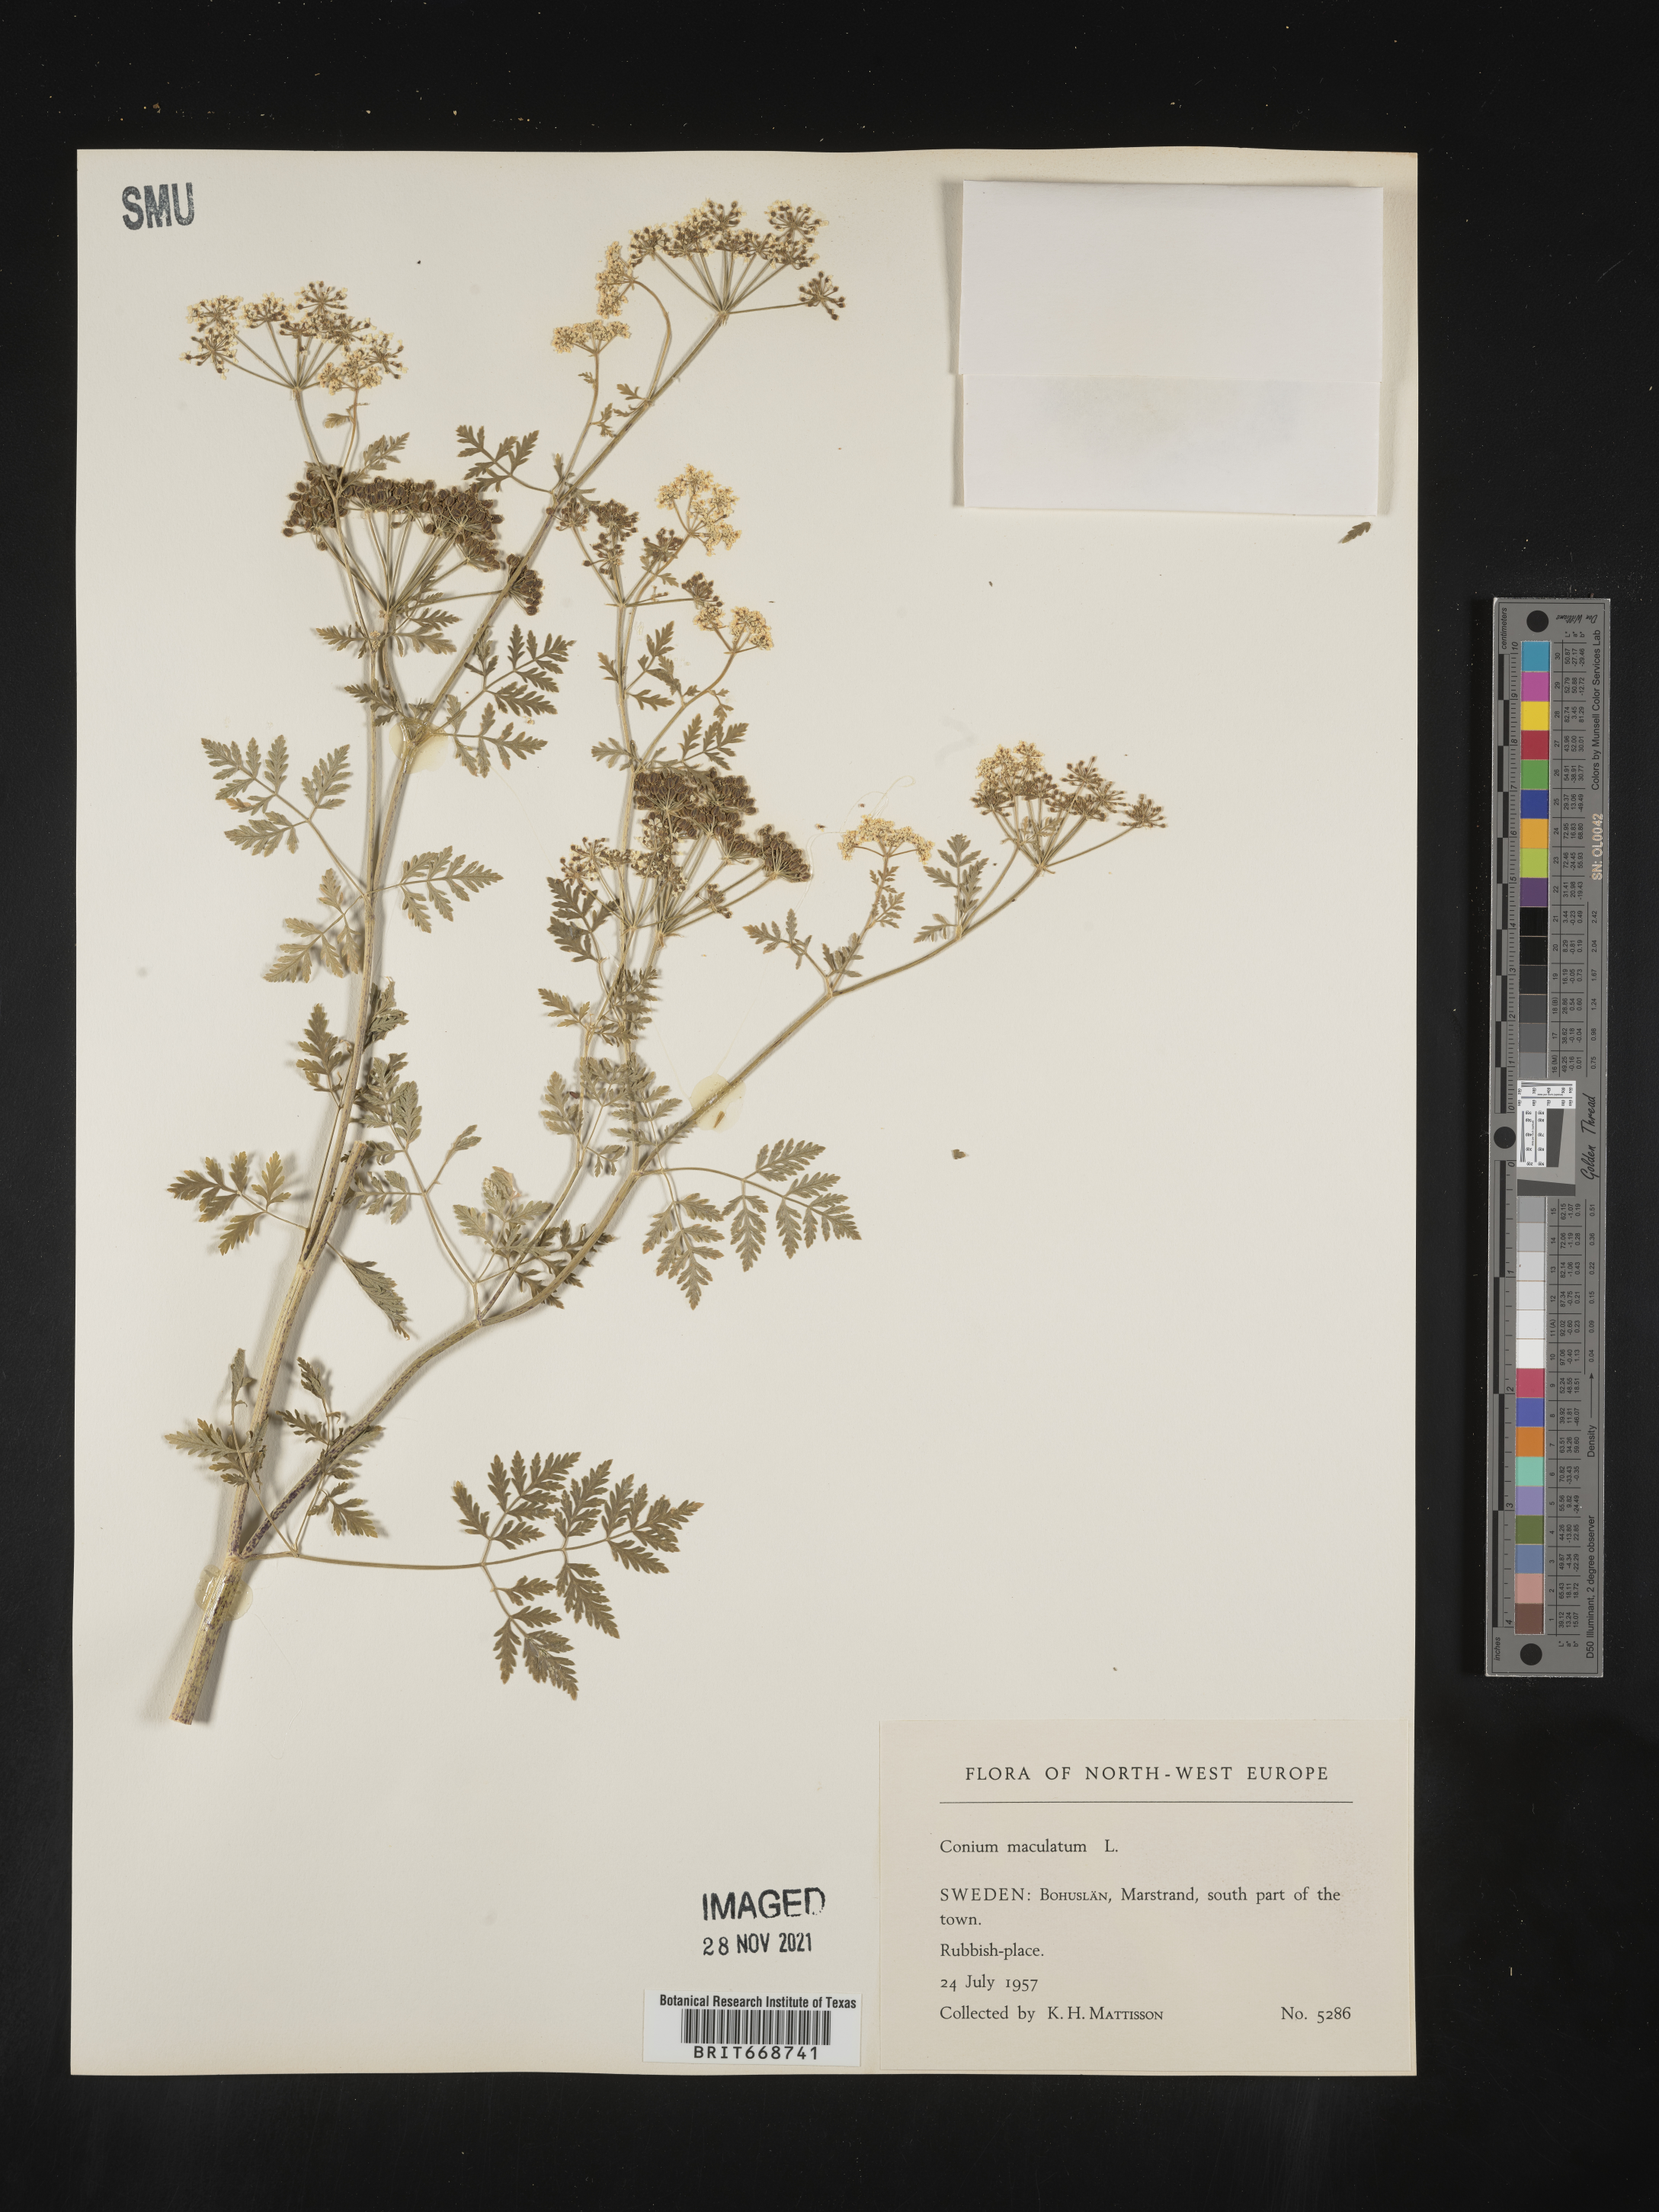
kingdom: Plantae
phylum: Tracheophyta
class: Magnoliopsida
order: Apiales
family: Apiaceae
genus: Conium
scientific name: Conium
